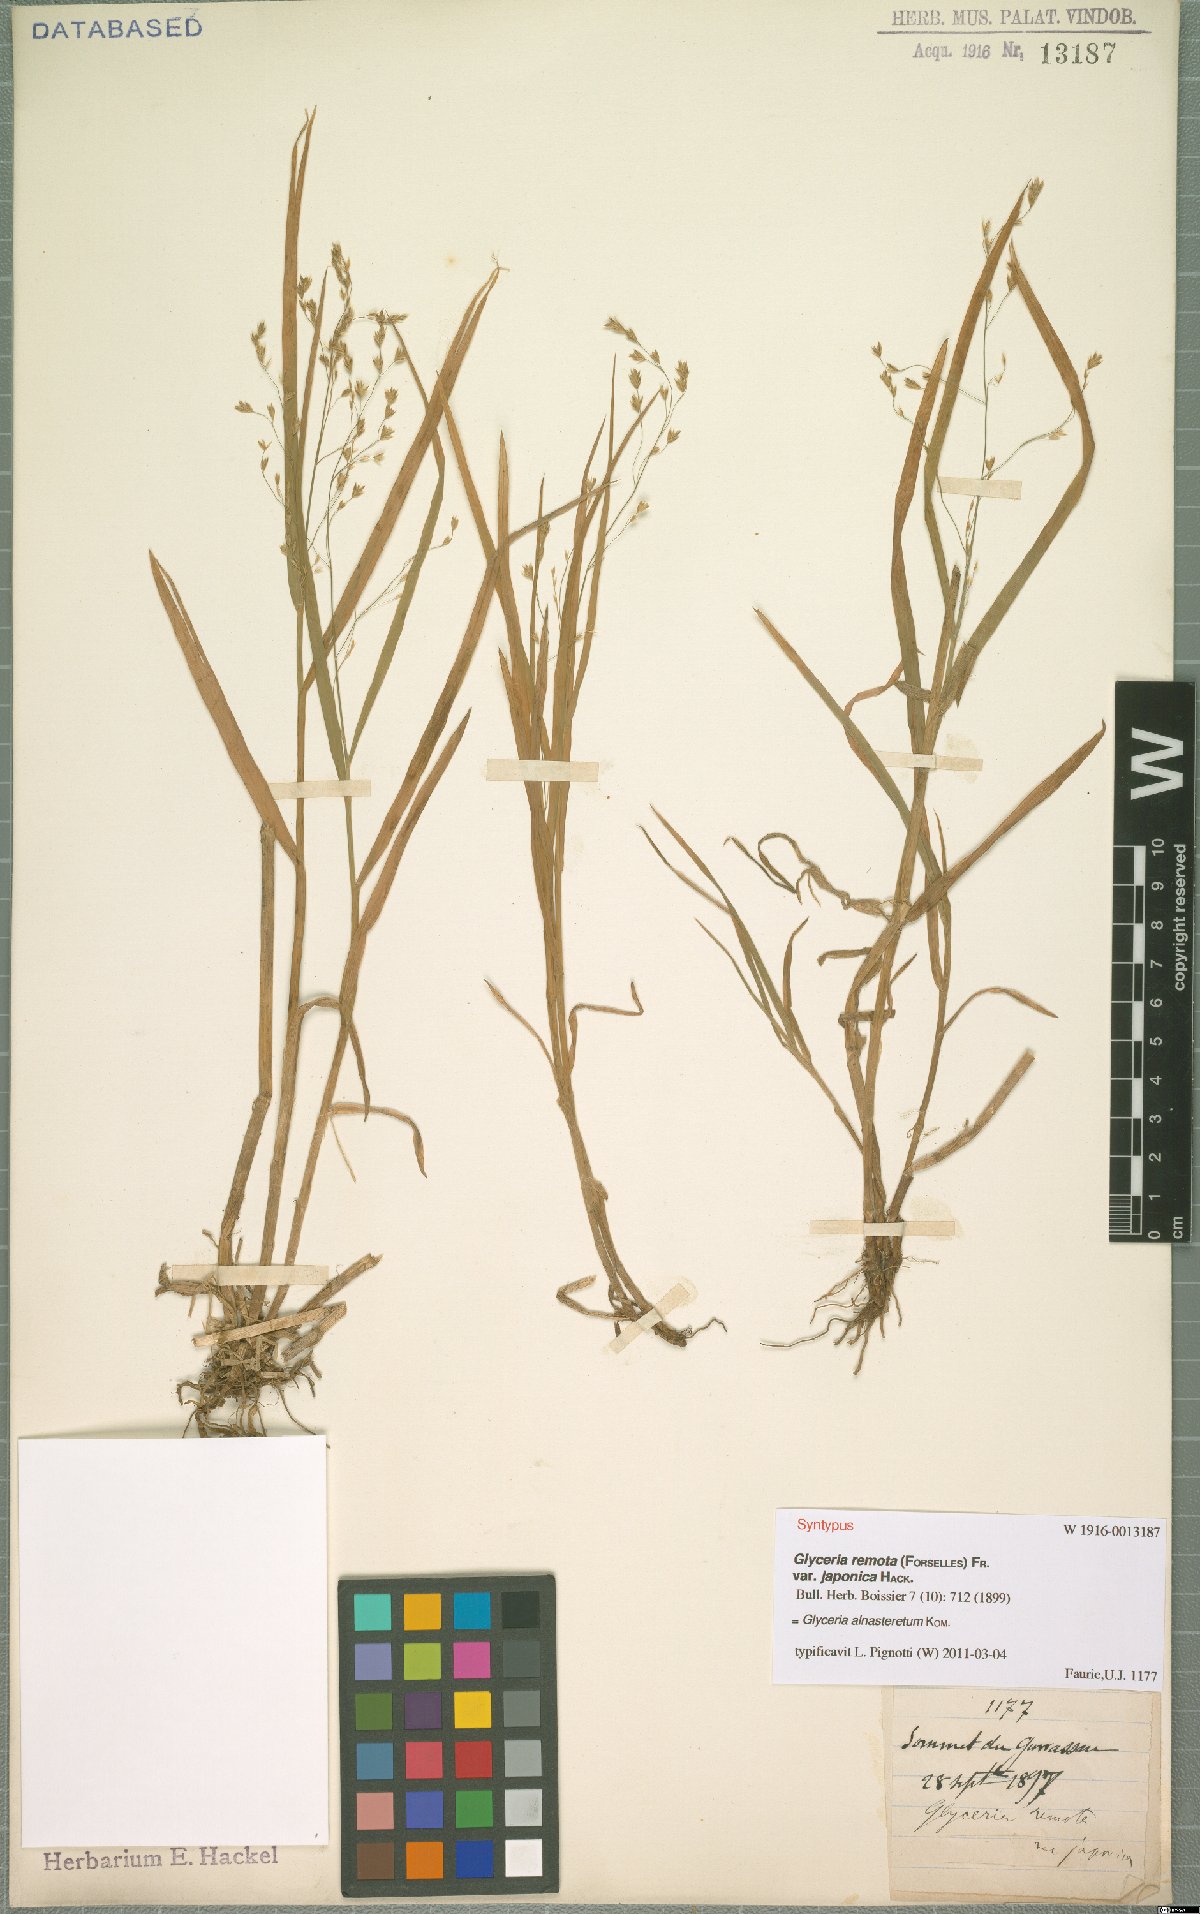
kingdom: Plantae
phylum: Tracheophyta
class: Liliopsida
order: Poales
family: Poaceae
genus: Glyceria
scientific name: Glyceria alnasteretum
